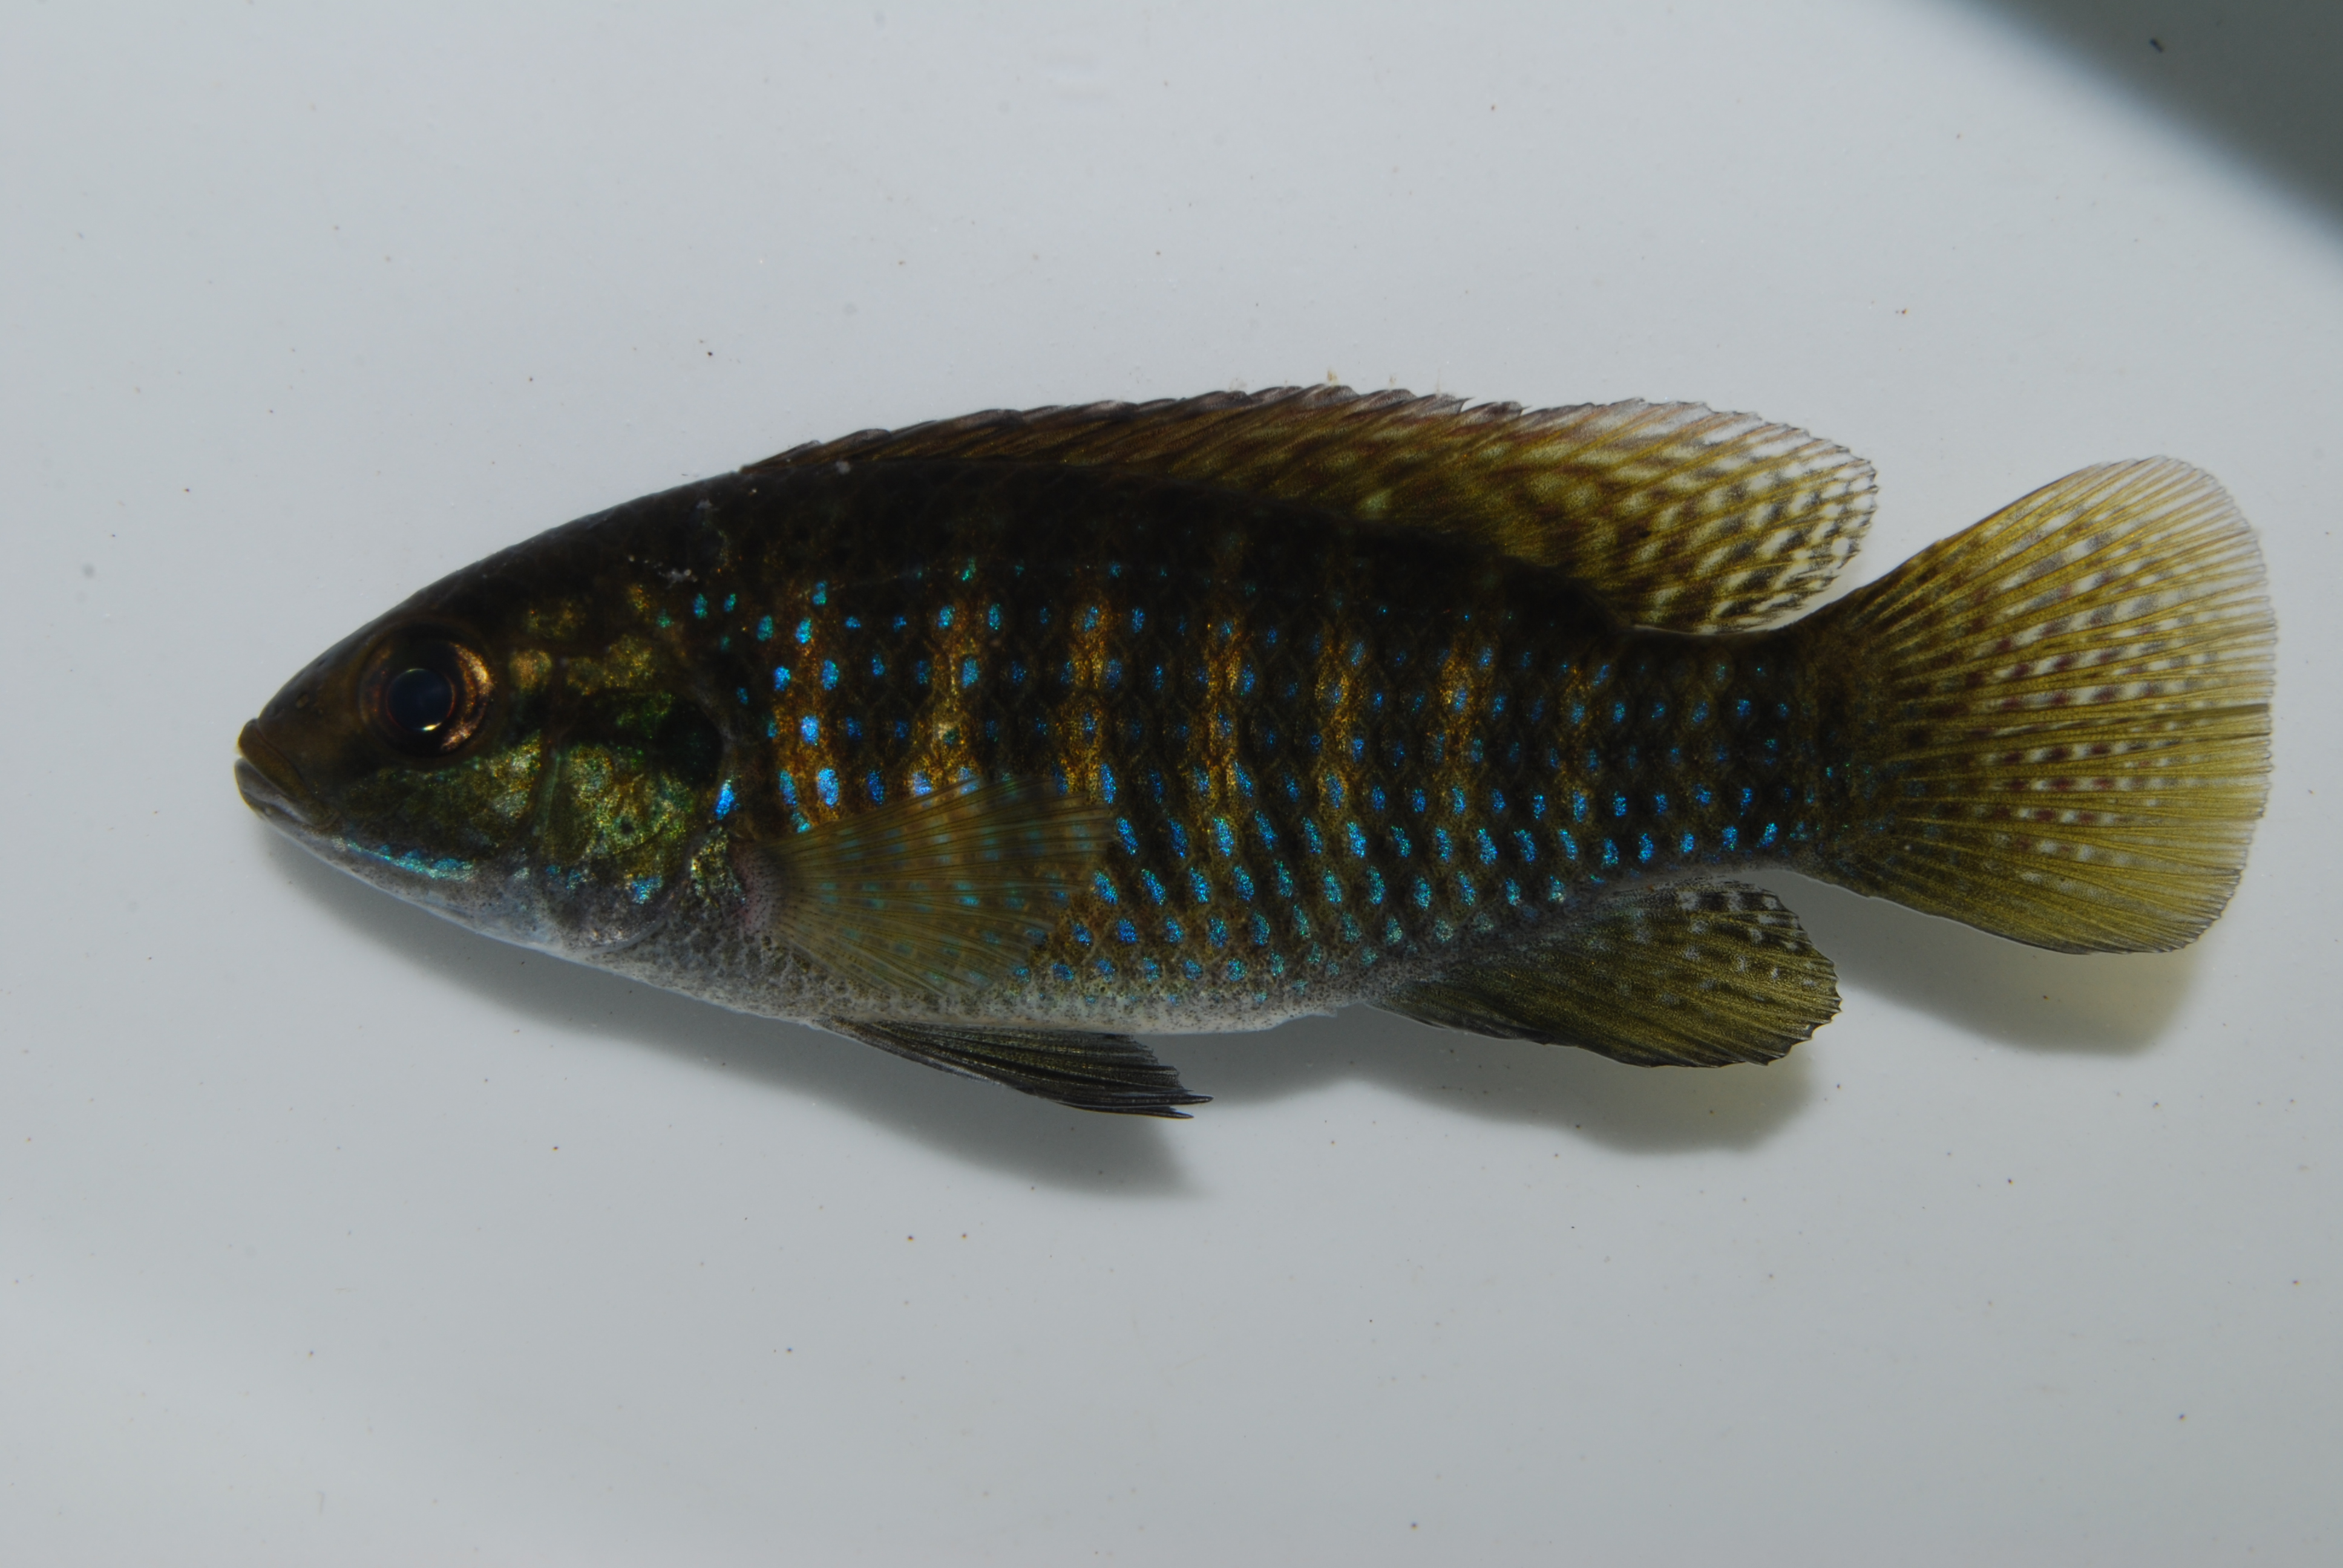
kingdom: Animalia
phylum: Chordata
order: Perciformes
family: Cichlidae
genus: Tilapia
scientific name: Tilapia ruweti
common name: Okavango tilapia
